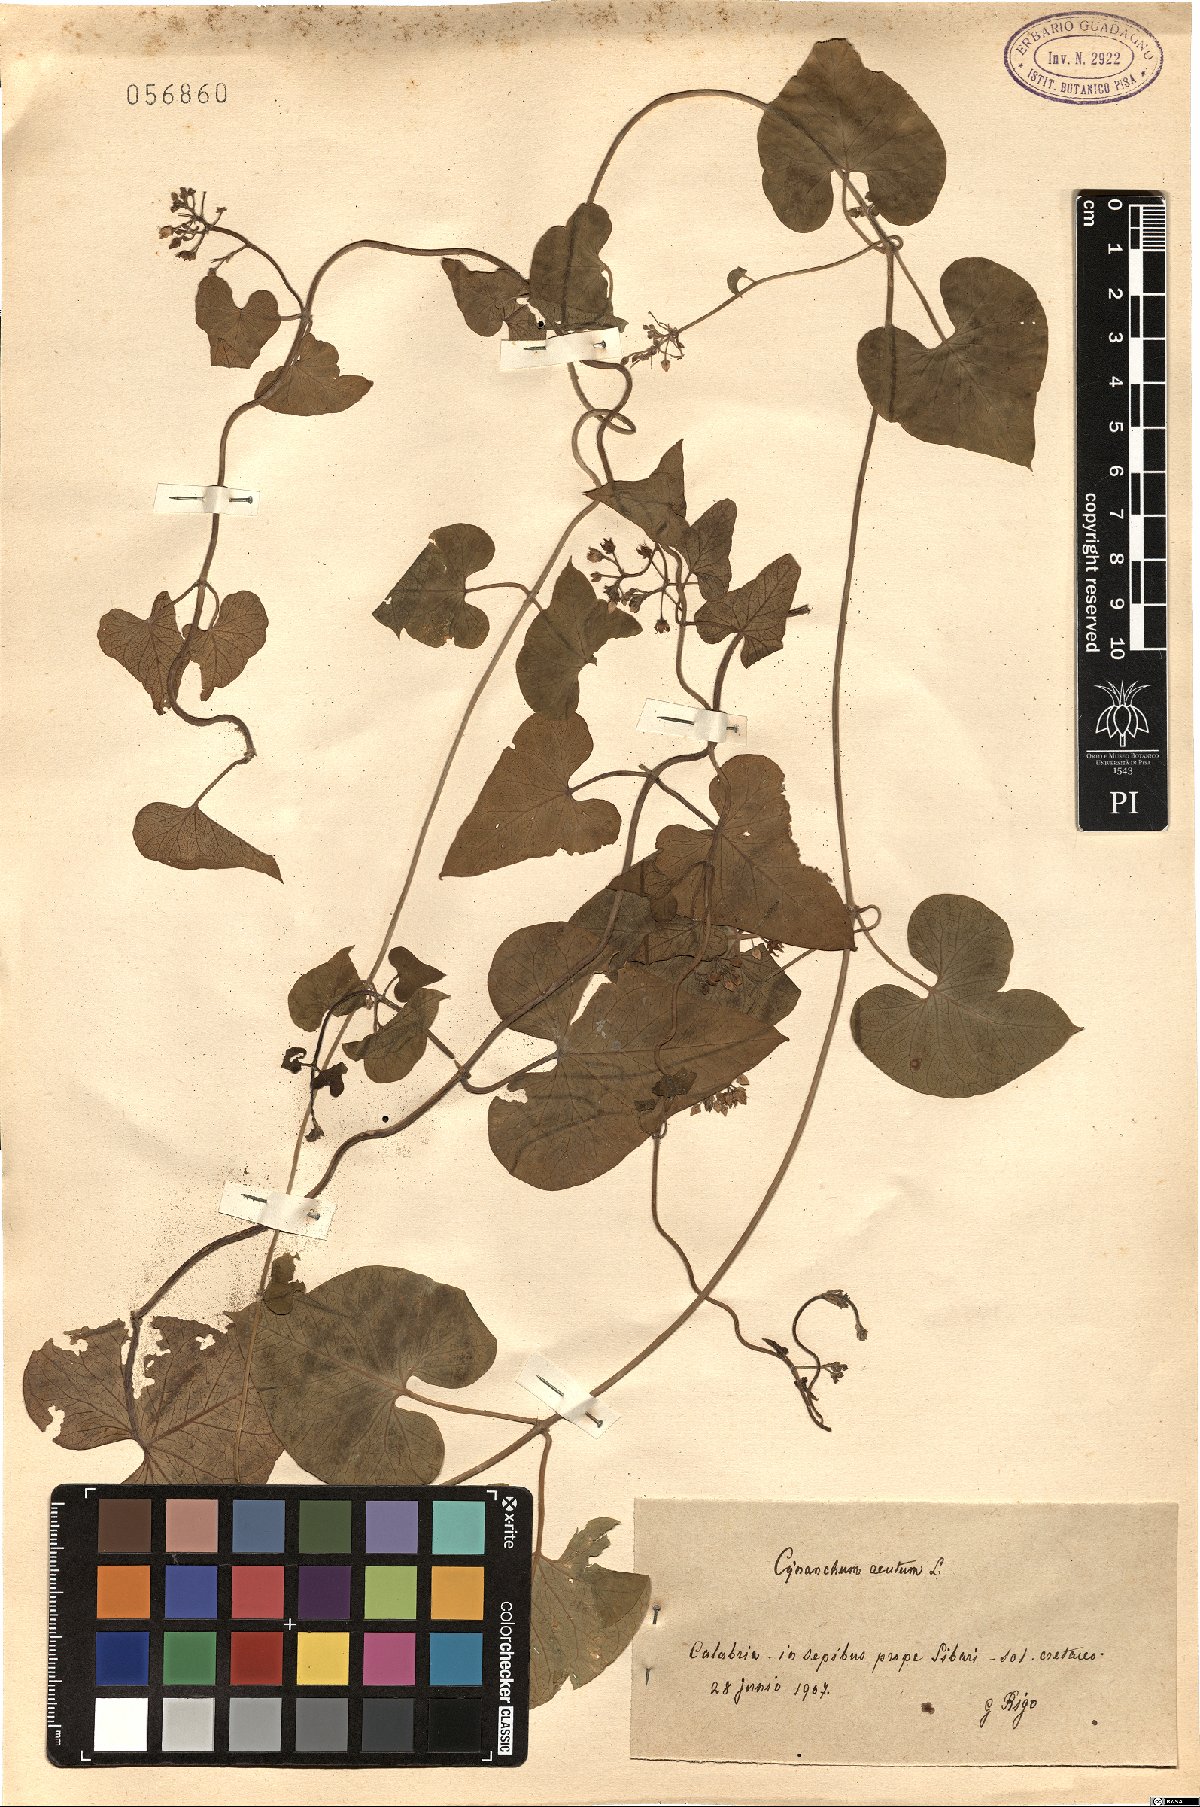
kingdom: Plantae
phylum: Tracheophyta
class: Magnoliopsida
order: Gentianales
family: Apocynaceae
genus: Cynanchum
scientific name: Cynanchum acutum
